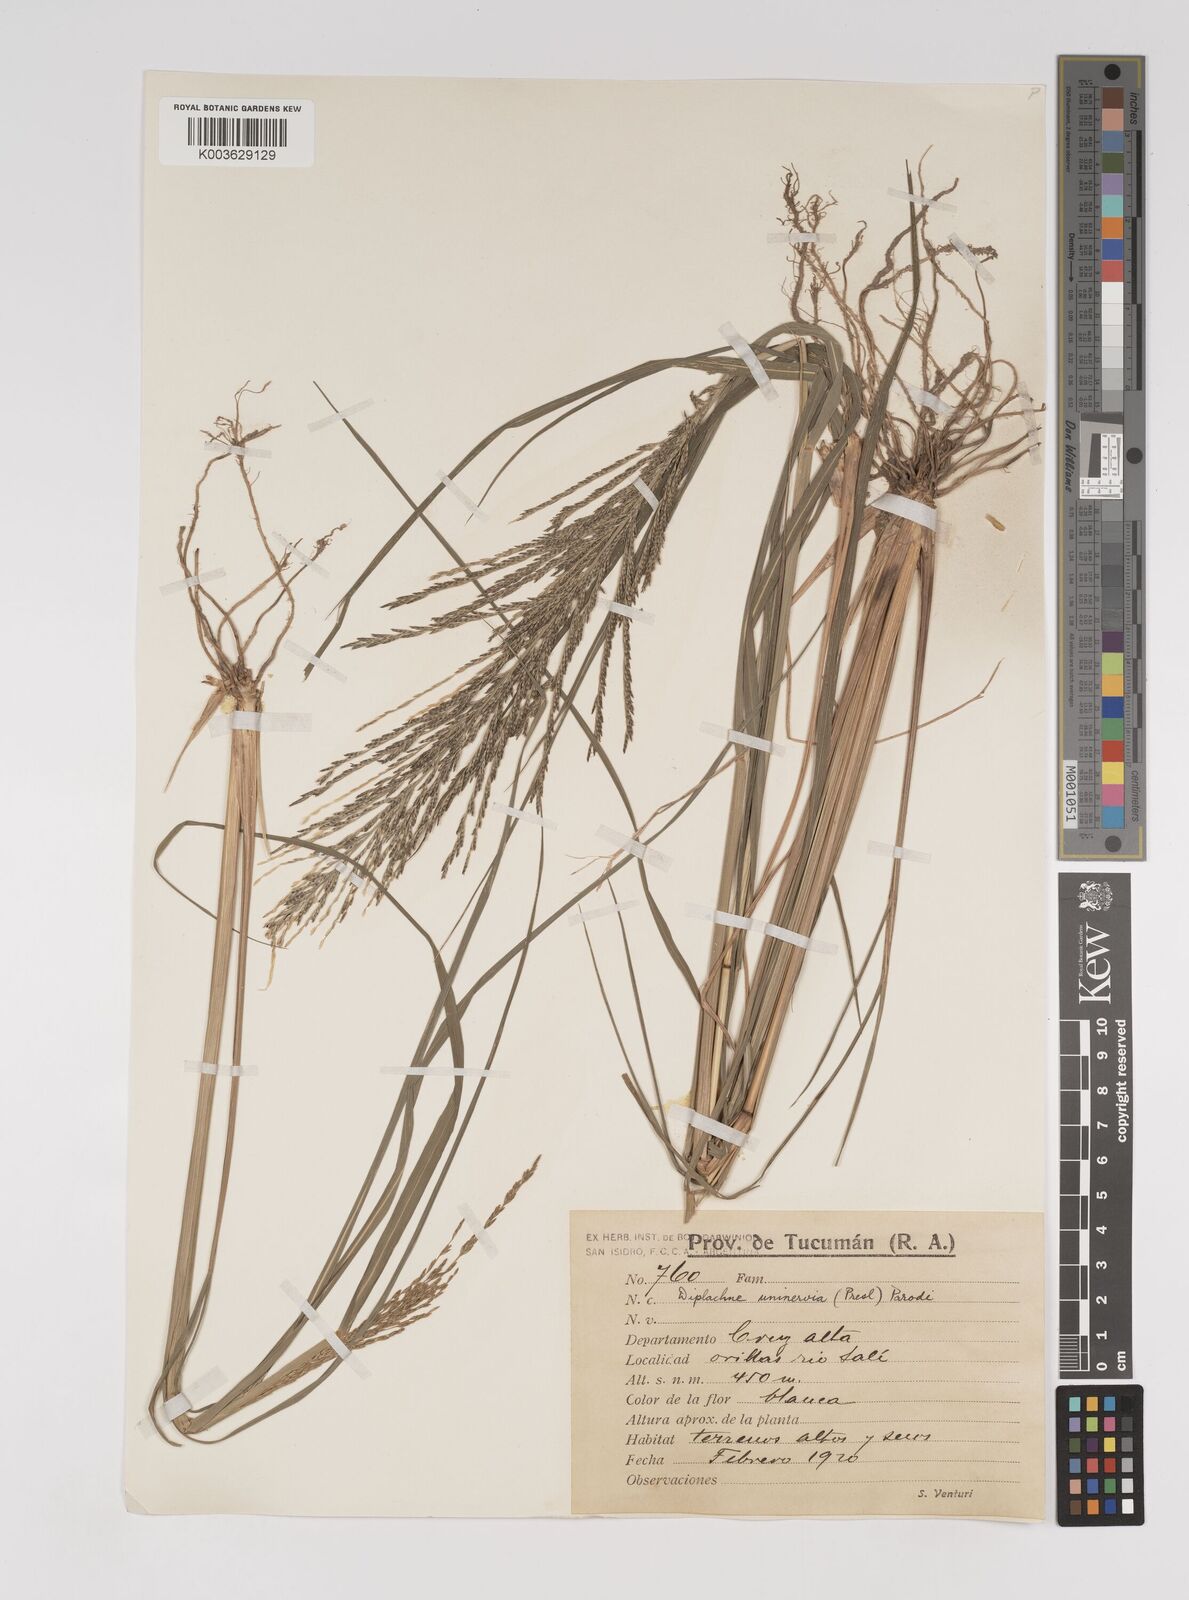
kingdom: Plantae
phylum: Tracheophyta
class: Liliopsida
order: Poales
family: Poaceae
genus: Diplachne
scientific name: Diplachne fusca
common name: Brown beetle grass
